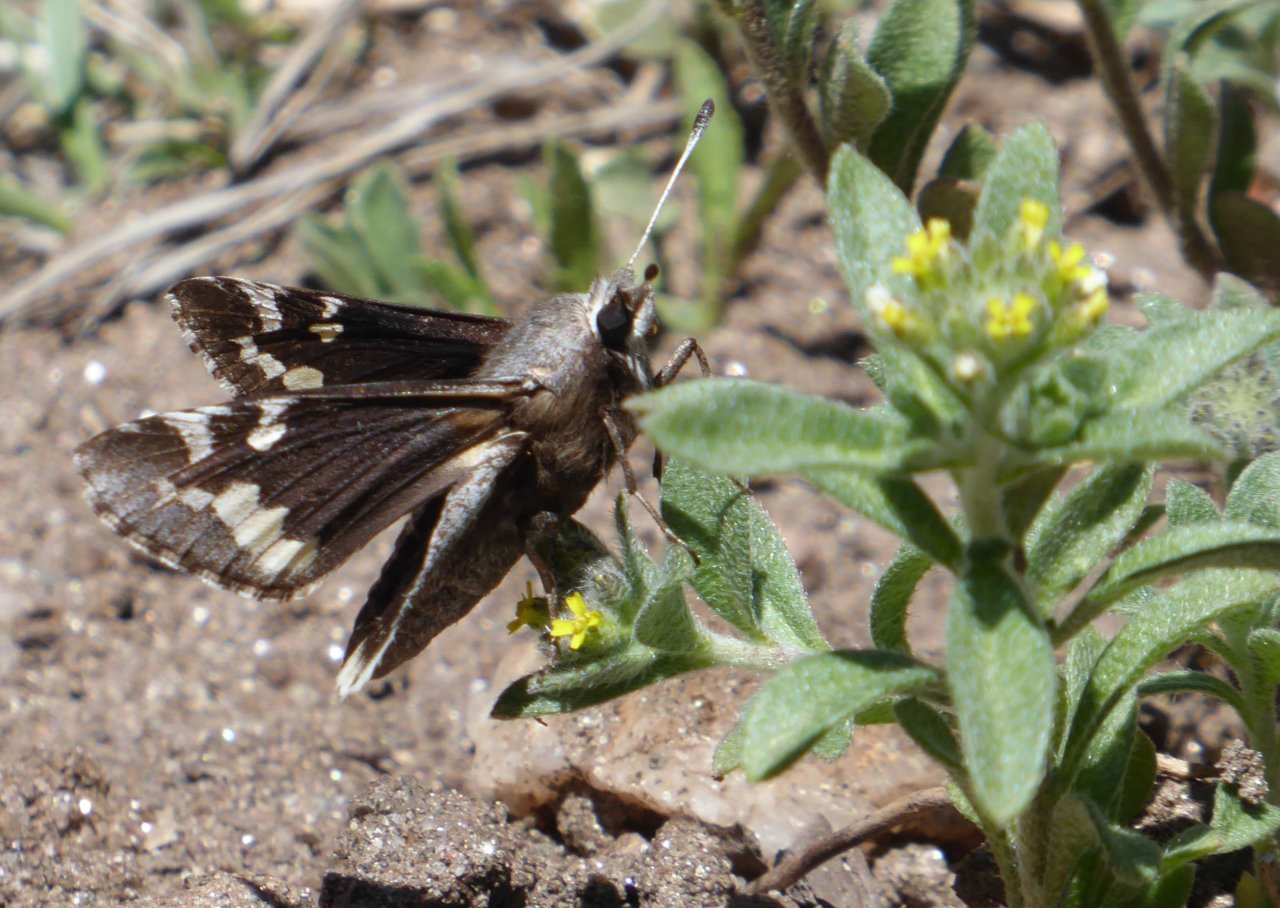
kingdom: Animalia
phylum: Arthropoda
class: Insecta
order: Lepidoptera
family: Hesperiidae
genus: Megathymus
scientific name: Megathymus yuccae
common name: Yucca Giant-Skipper
